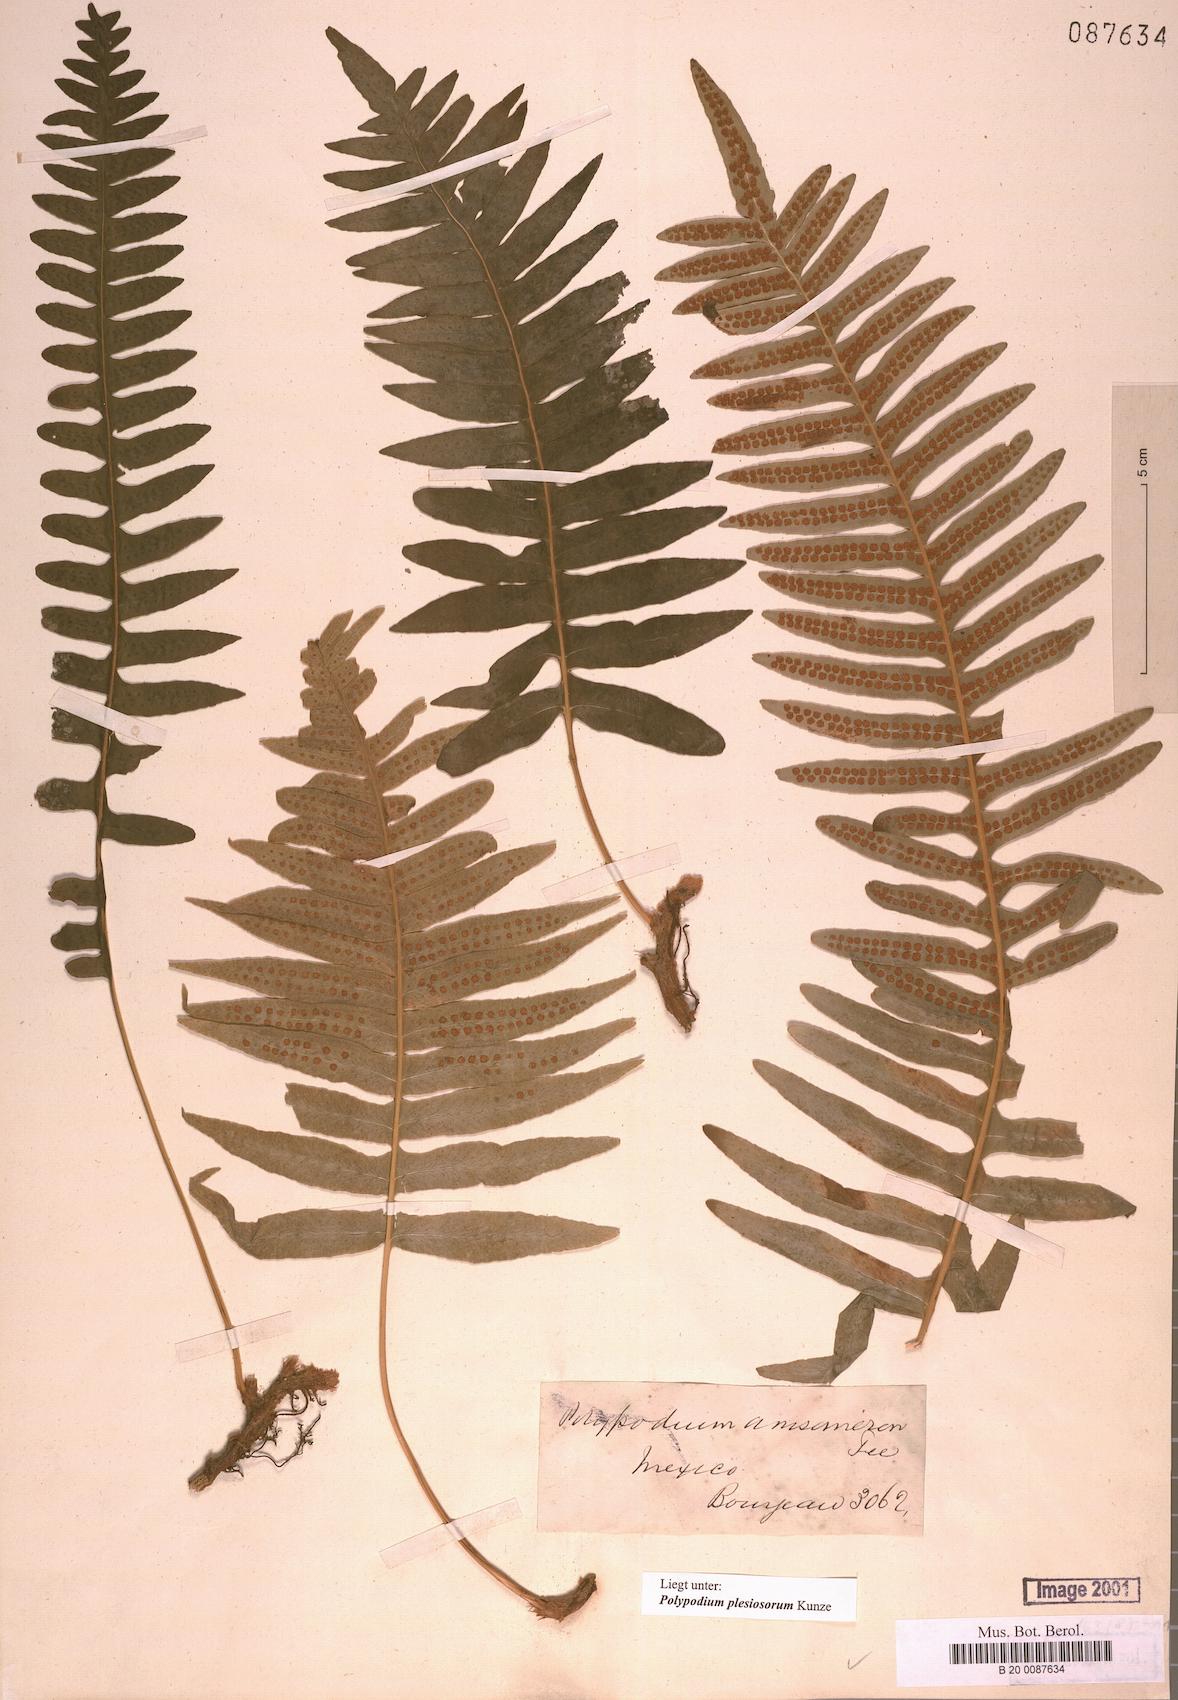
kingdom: Plantae
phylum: Tracheophyta
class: Polypodiopsida
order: Polypodiales
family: Polypodiaceae
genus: Polypodium
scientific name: Polypodium plesiosorum
